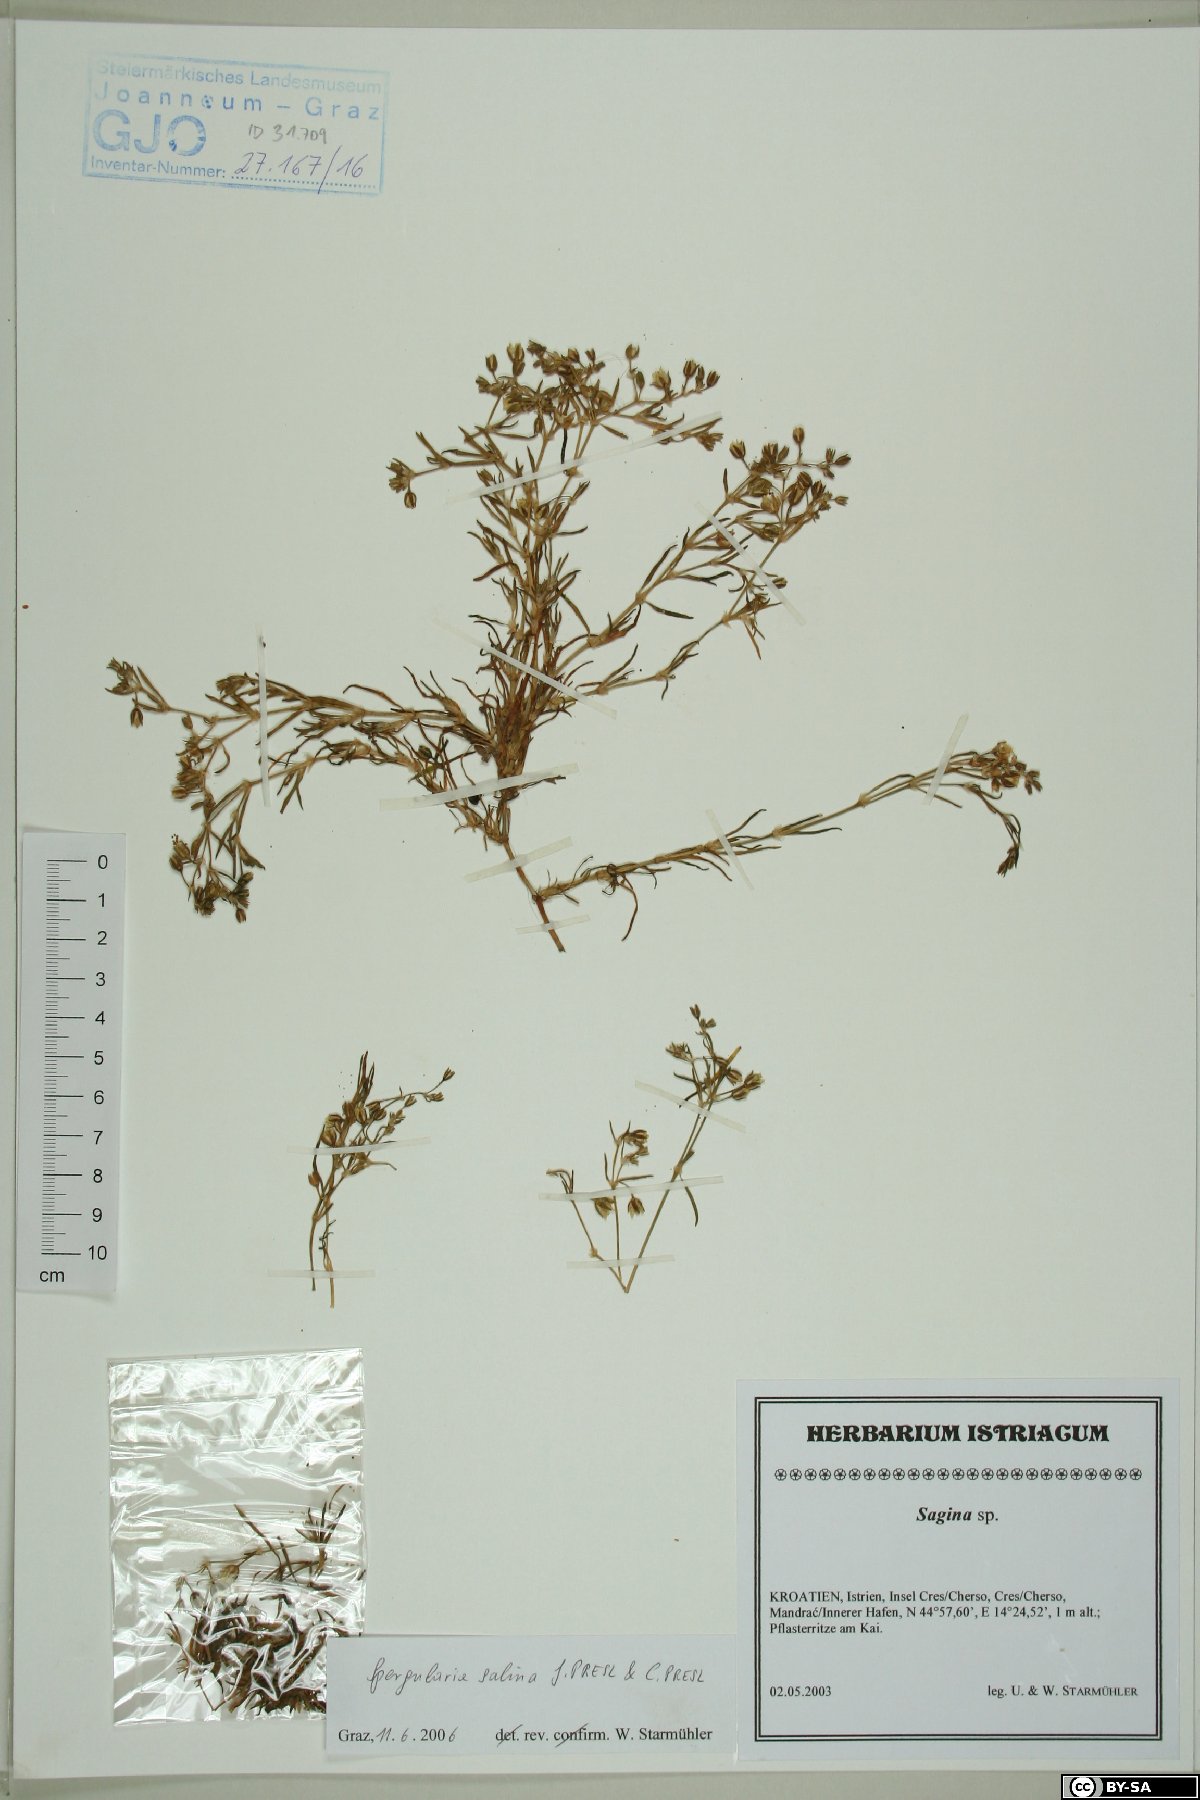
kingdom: Plantae
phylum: Tracheophyta
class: Magnoliopsida
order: Caryophyllales
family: Caryophyllaceae
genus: Spergularia
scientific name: Spergularia marina
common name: Lesser sea-spurrey
